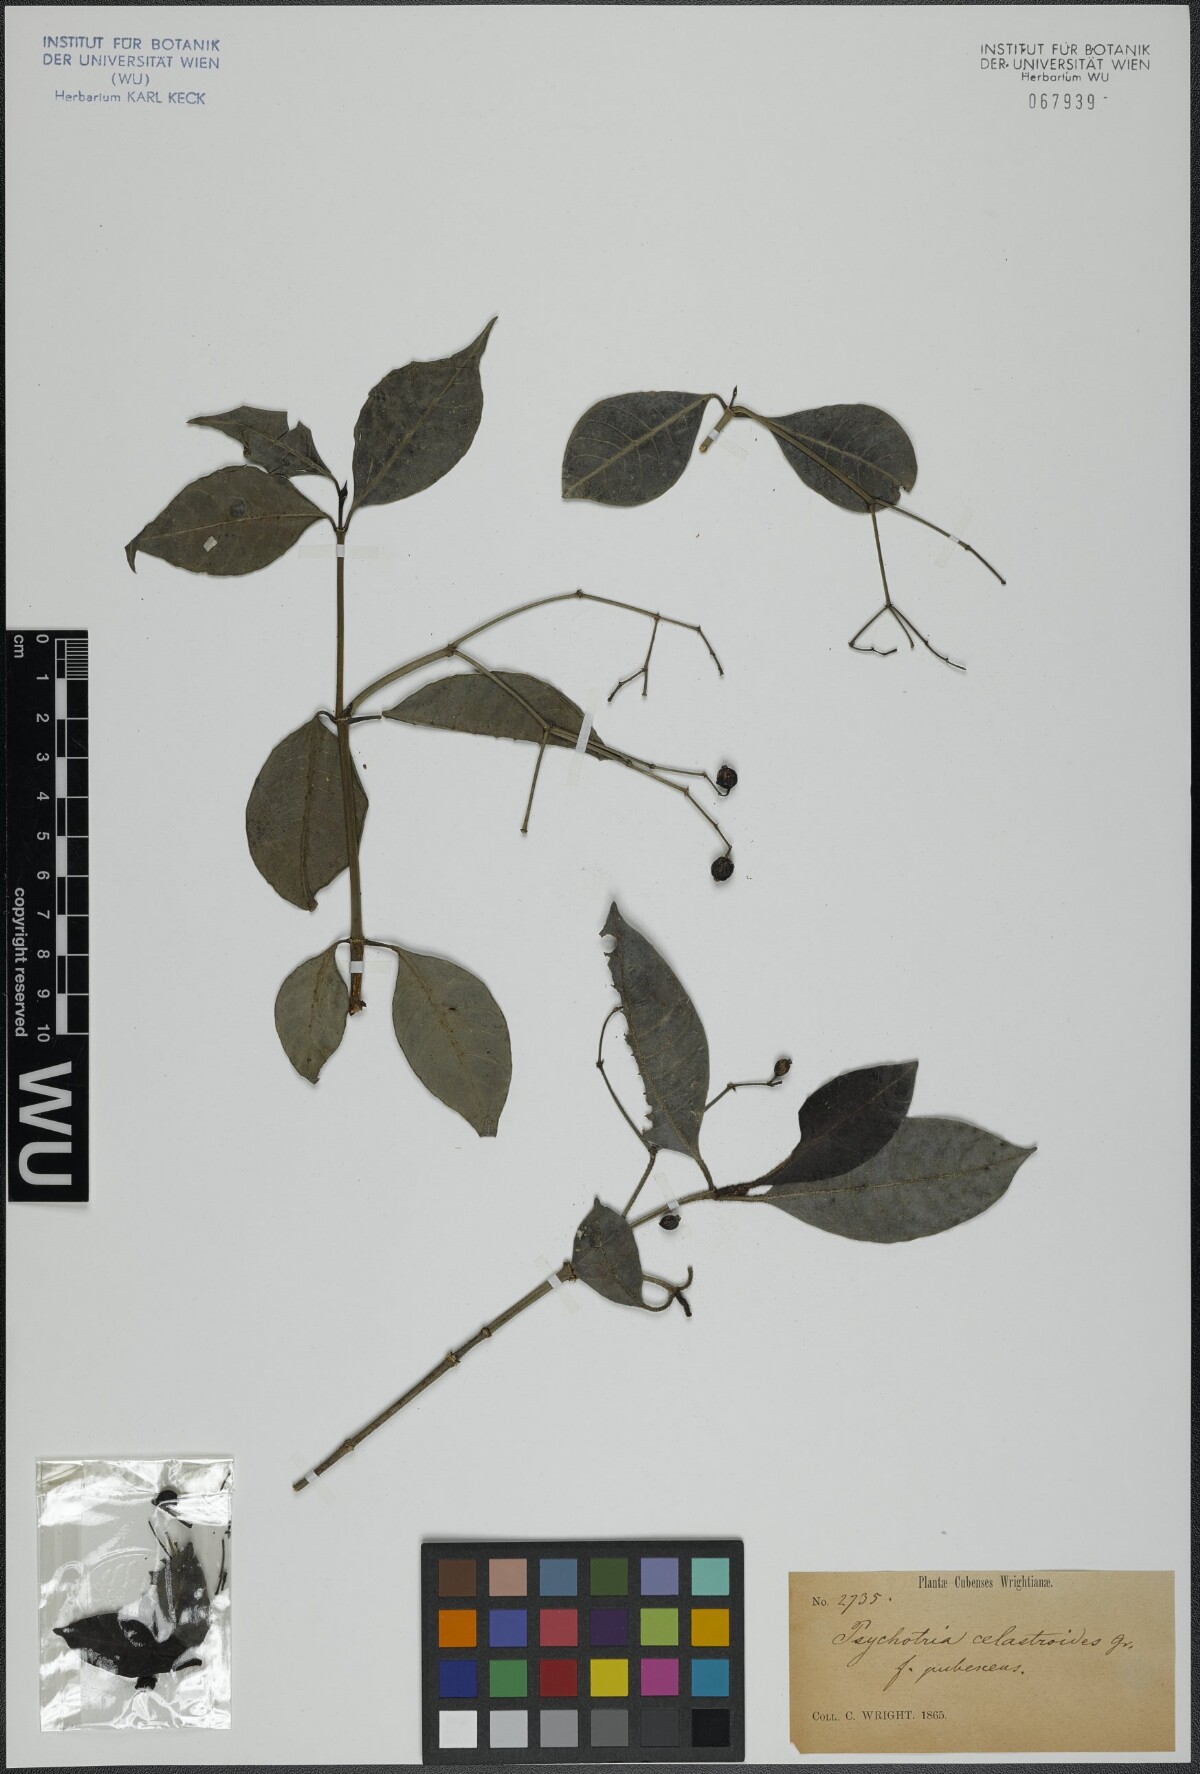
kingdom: Plantae
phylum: Tracheophyta
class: Magnoliopsida
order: Gentianales
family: Rubiaceae
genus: Psychotria
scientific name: Psychotria congesta
